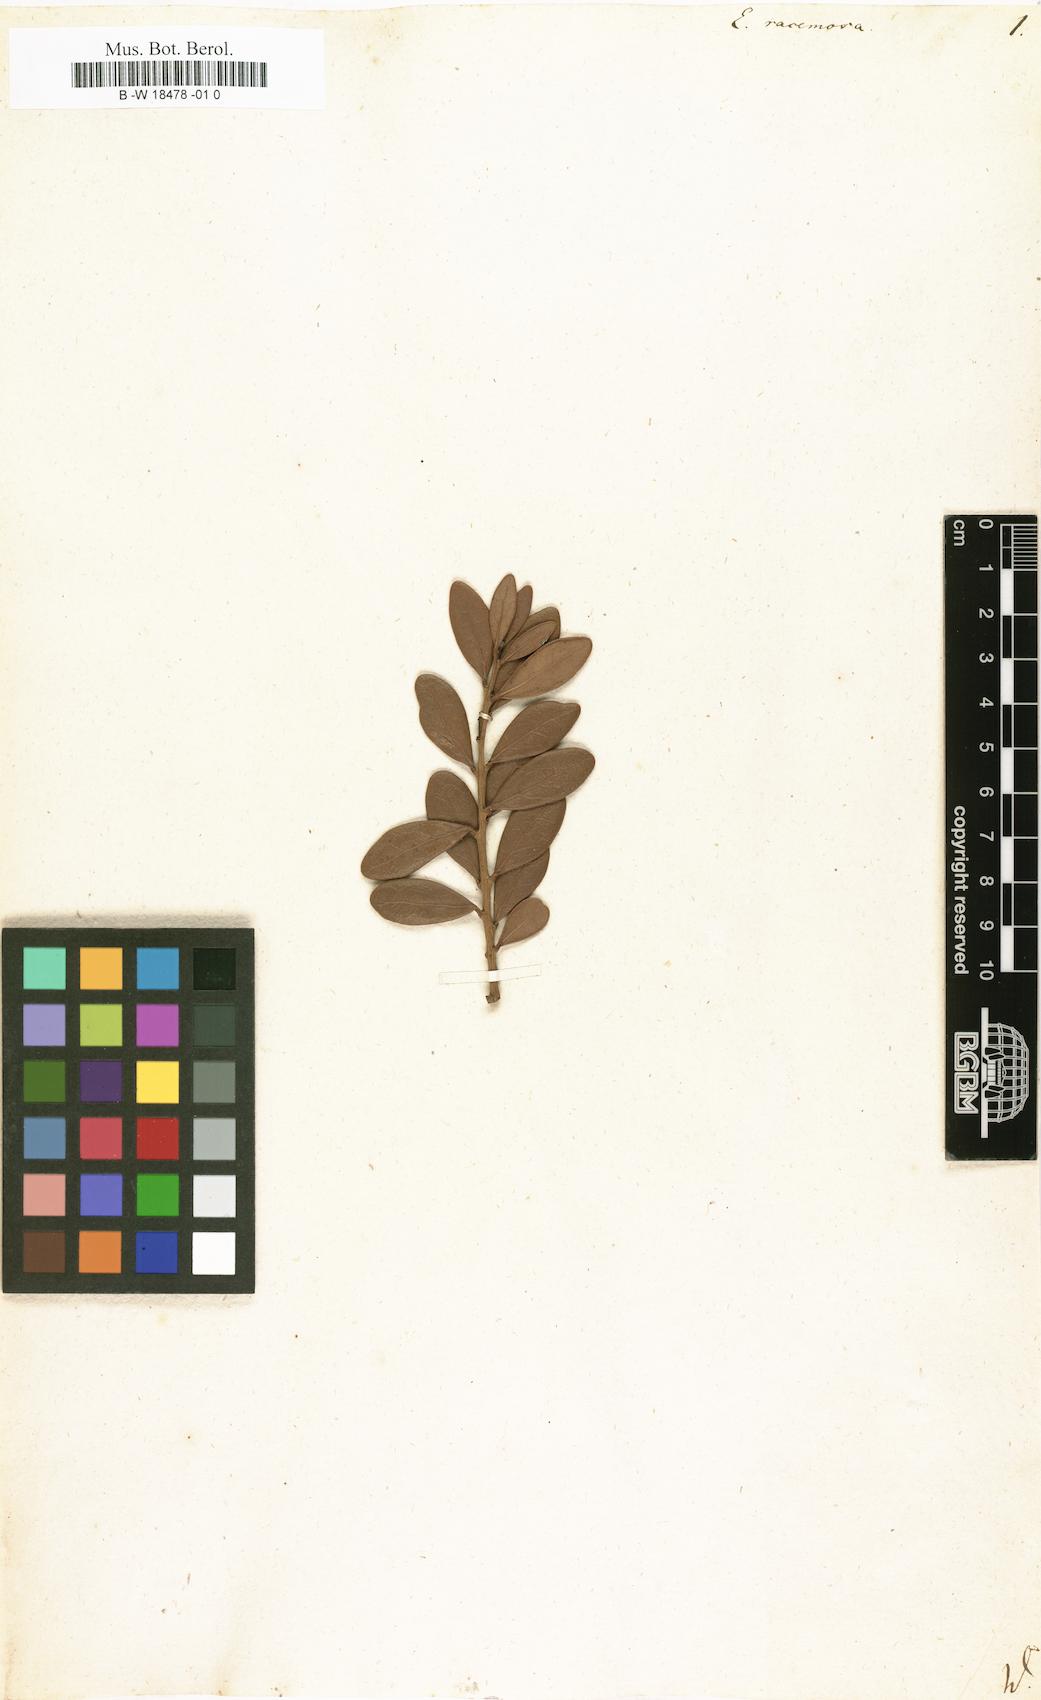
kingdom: Plantae
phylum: Tracheophyta
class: Magnoliopsida
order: Ericales
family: Ebenaceae
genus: Euclea
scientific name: Euclea racemosa
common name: Dune guarri
